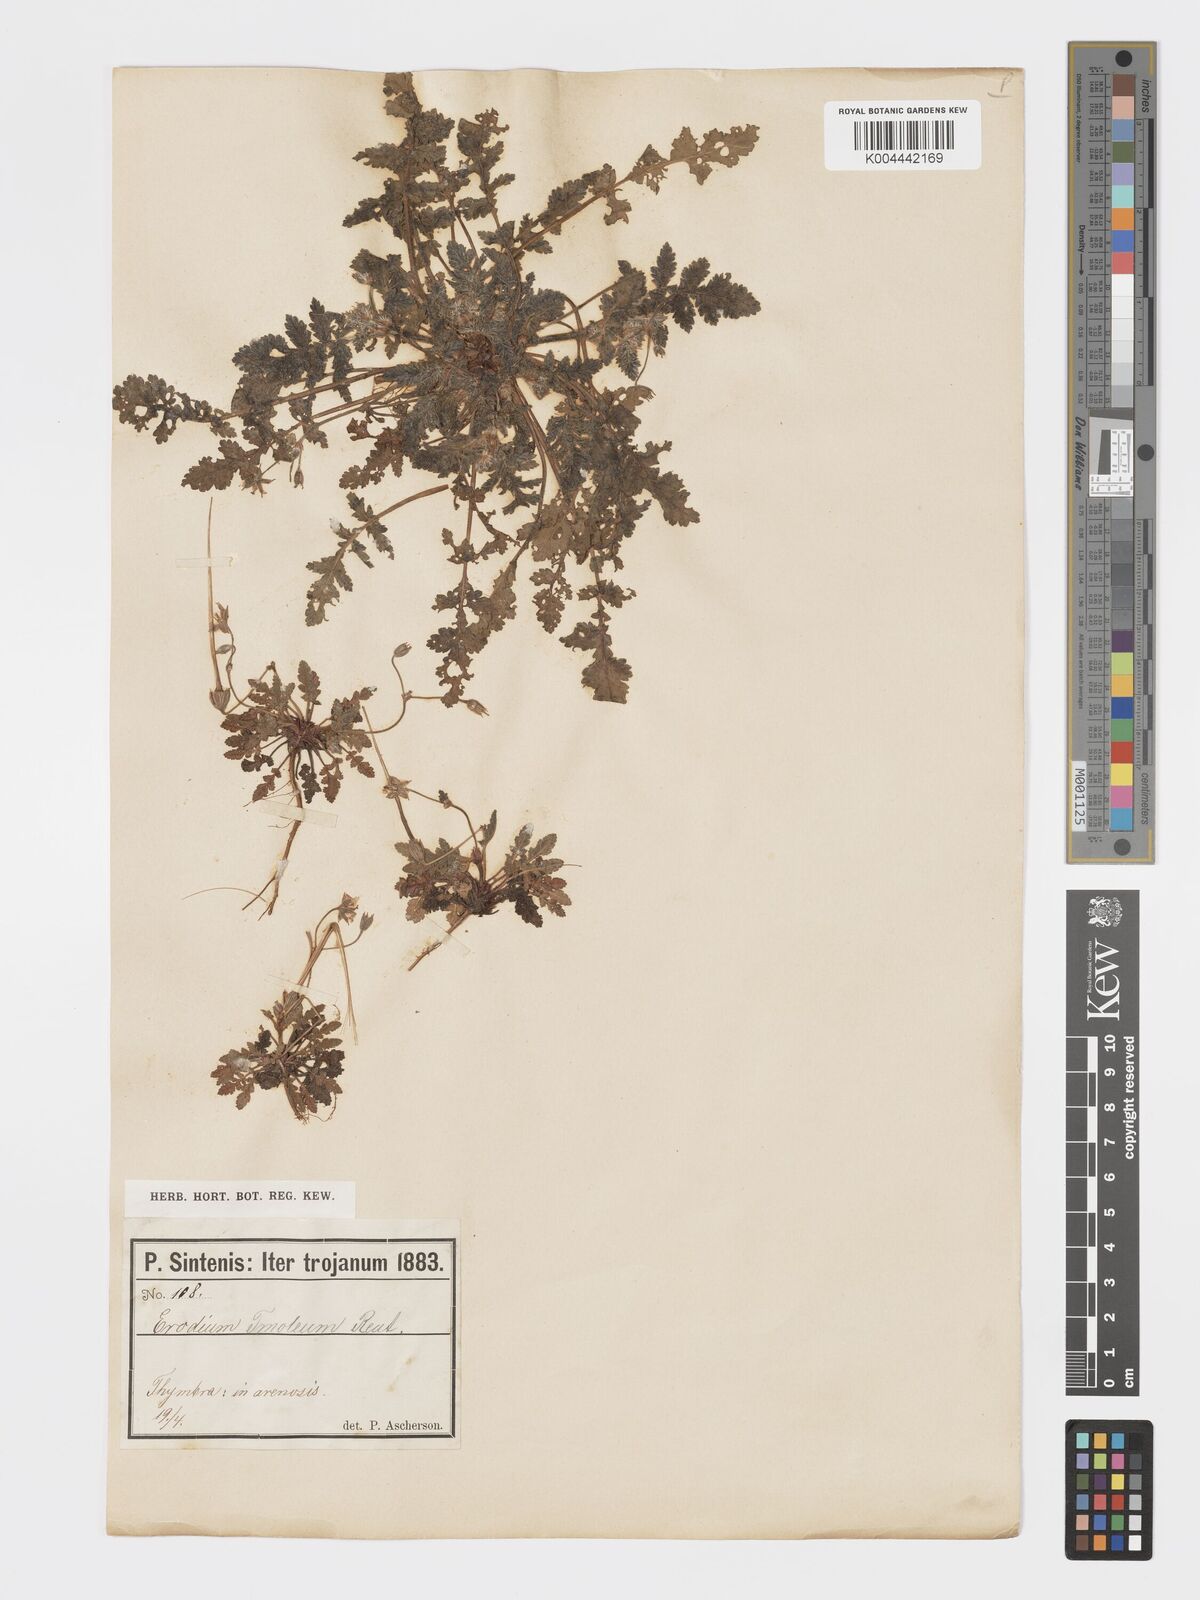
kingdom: Plantae
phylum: Tracheophyta
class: Magnoliopsida
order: Geraniales
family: Geraniaceae
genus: Erodium
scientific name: Erodium hoefftianum
